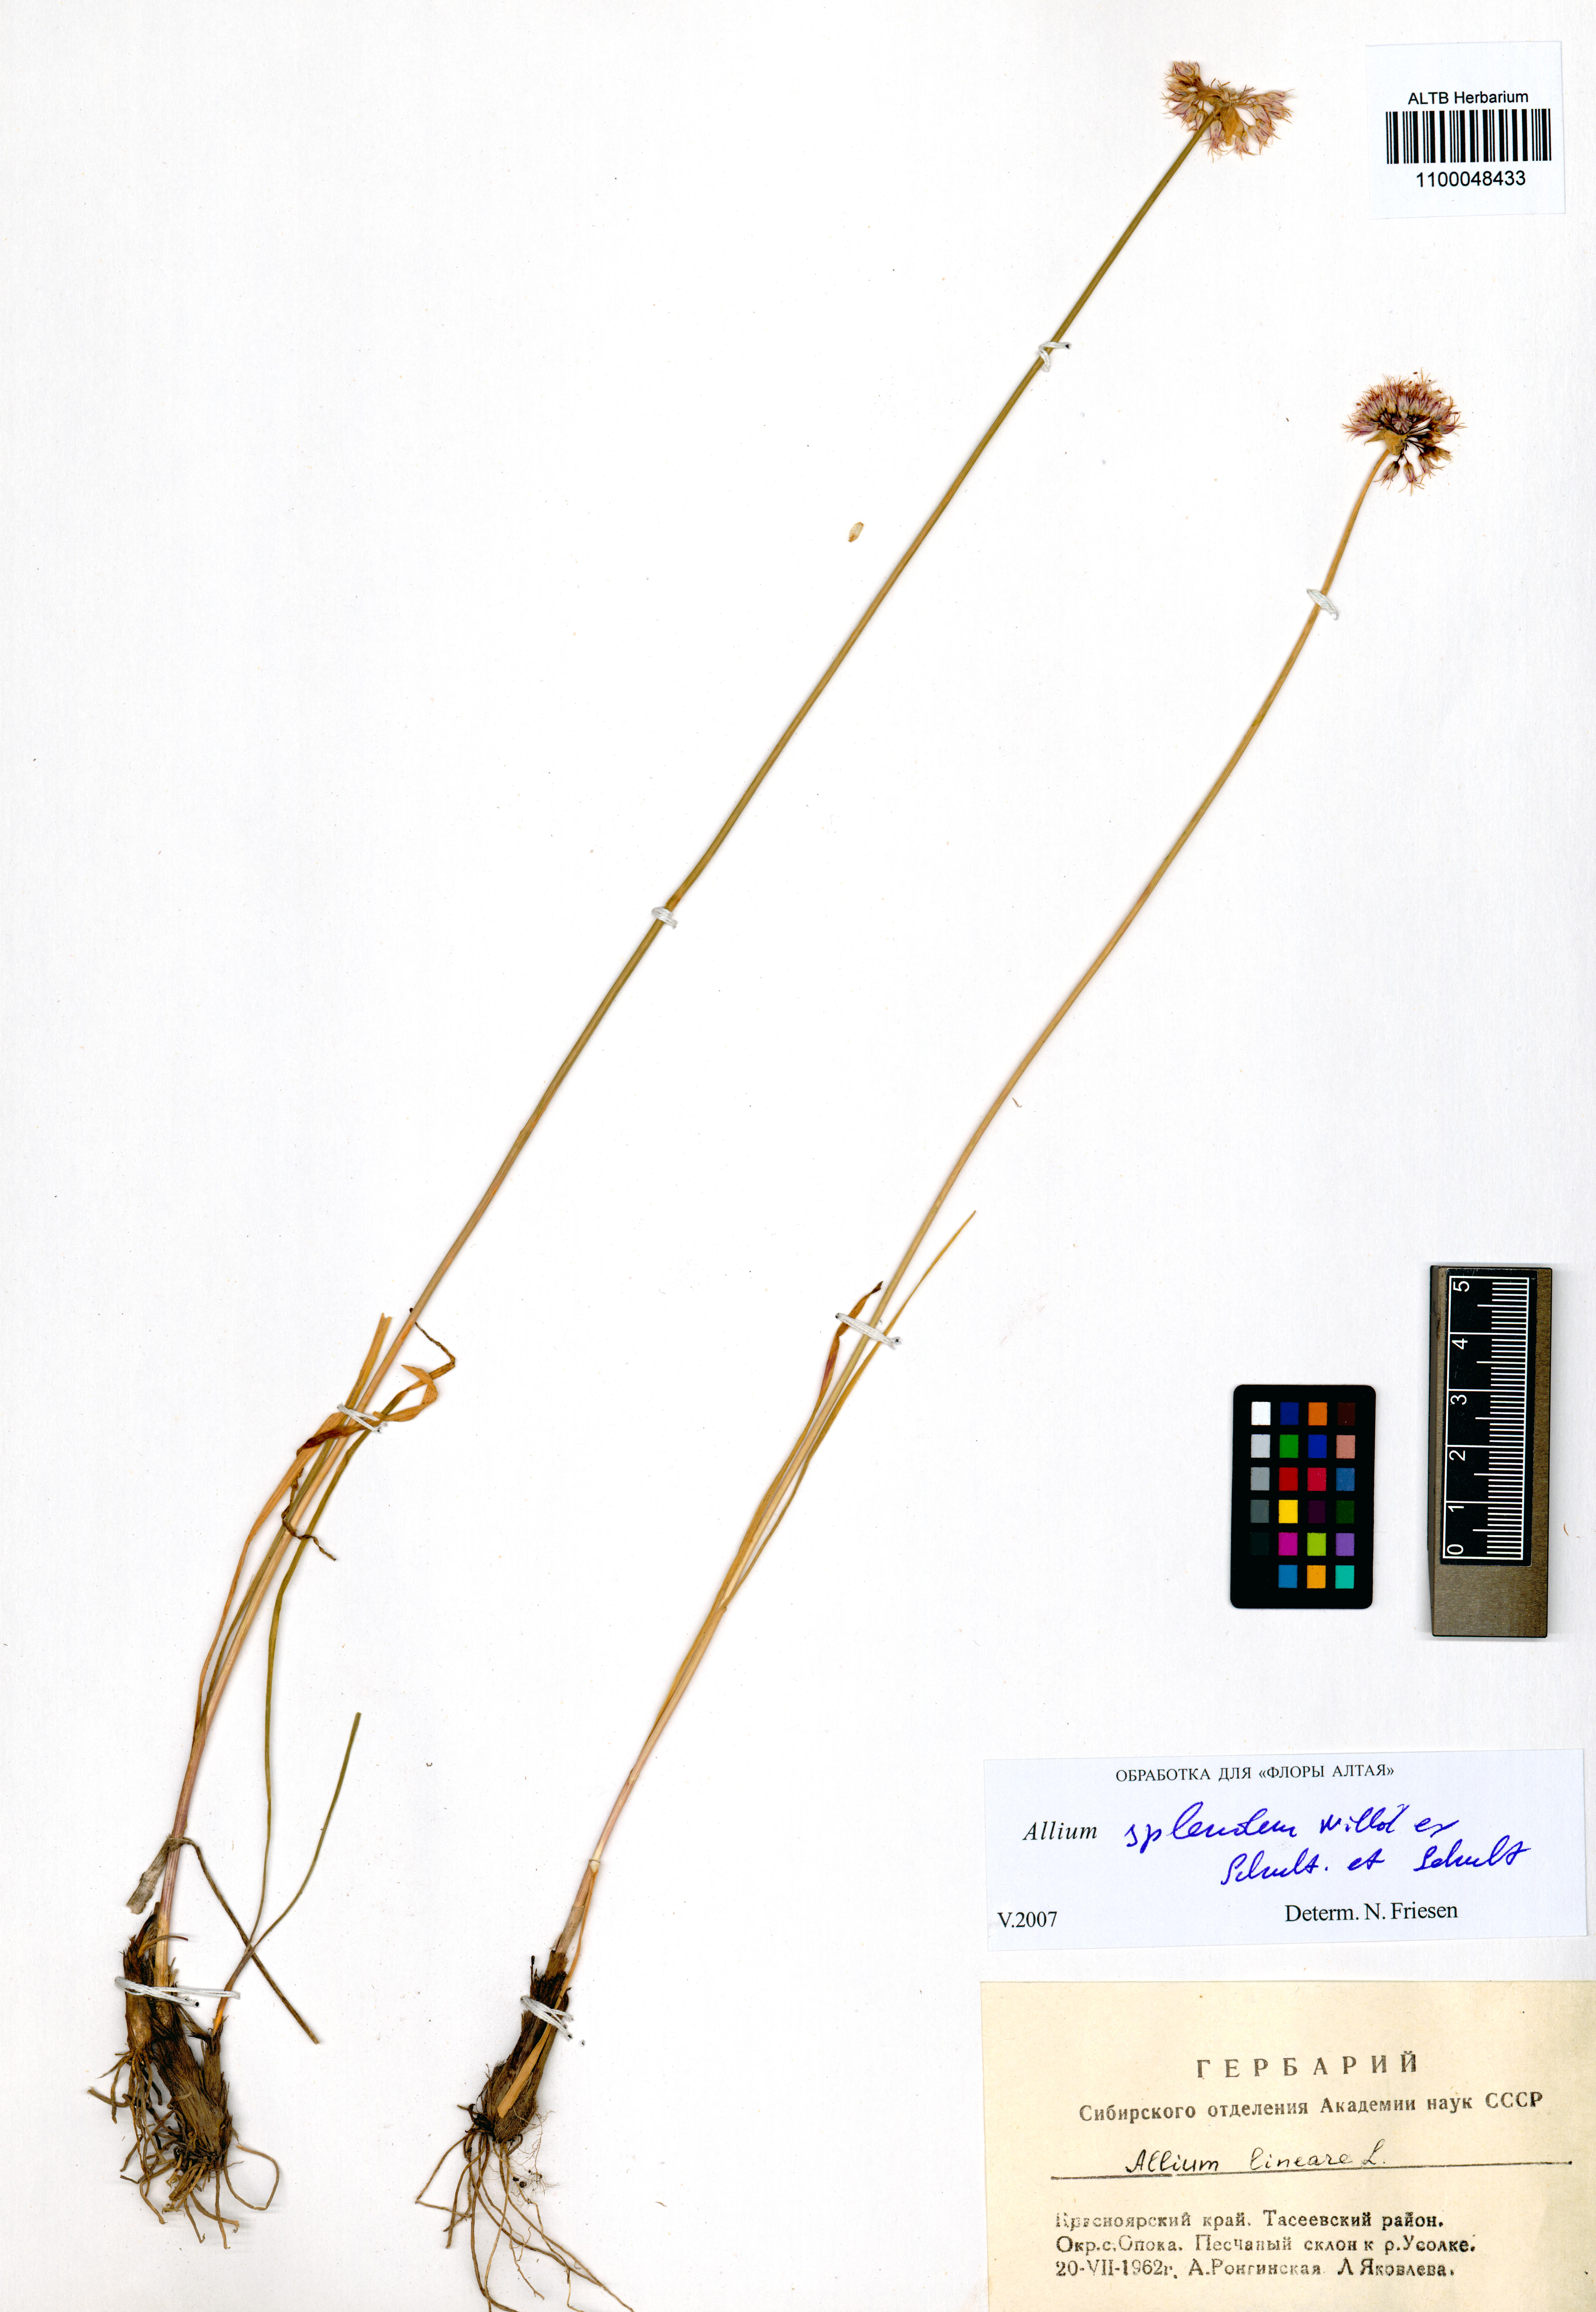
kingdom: Plantae
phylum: Tracheophyta
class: Liliopsida
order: Asparagales
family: Amaryllidaceae
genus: Allium
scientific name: Allium splendens
